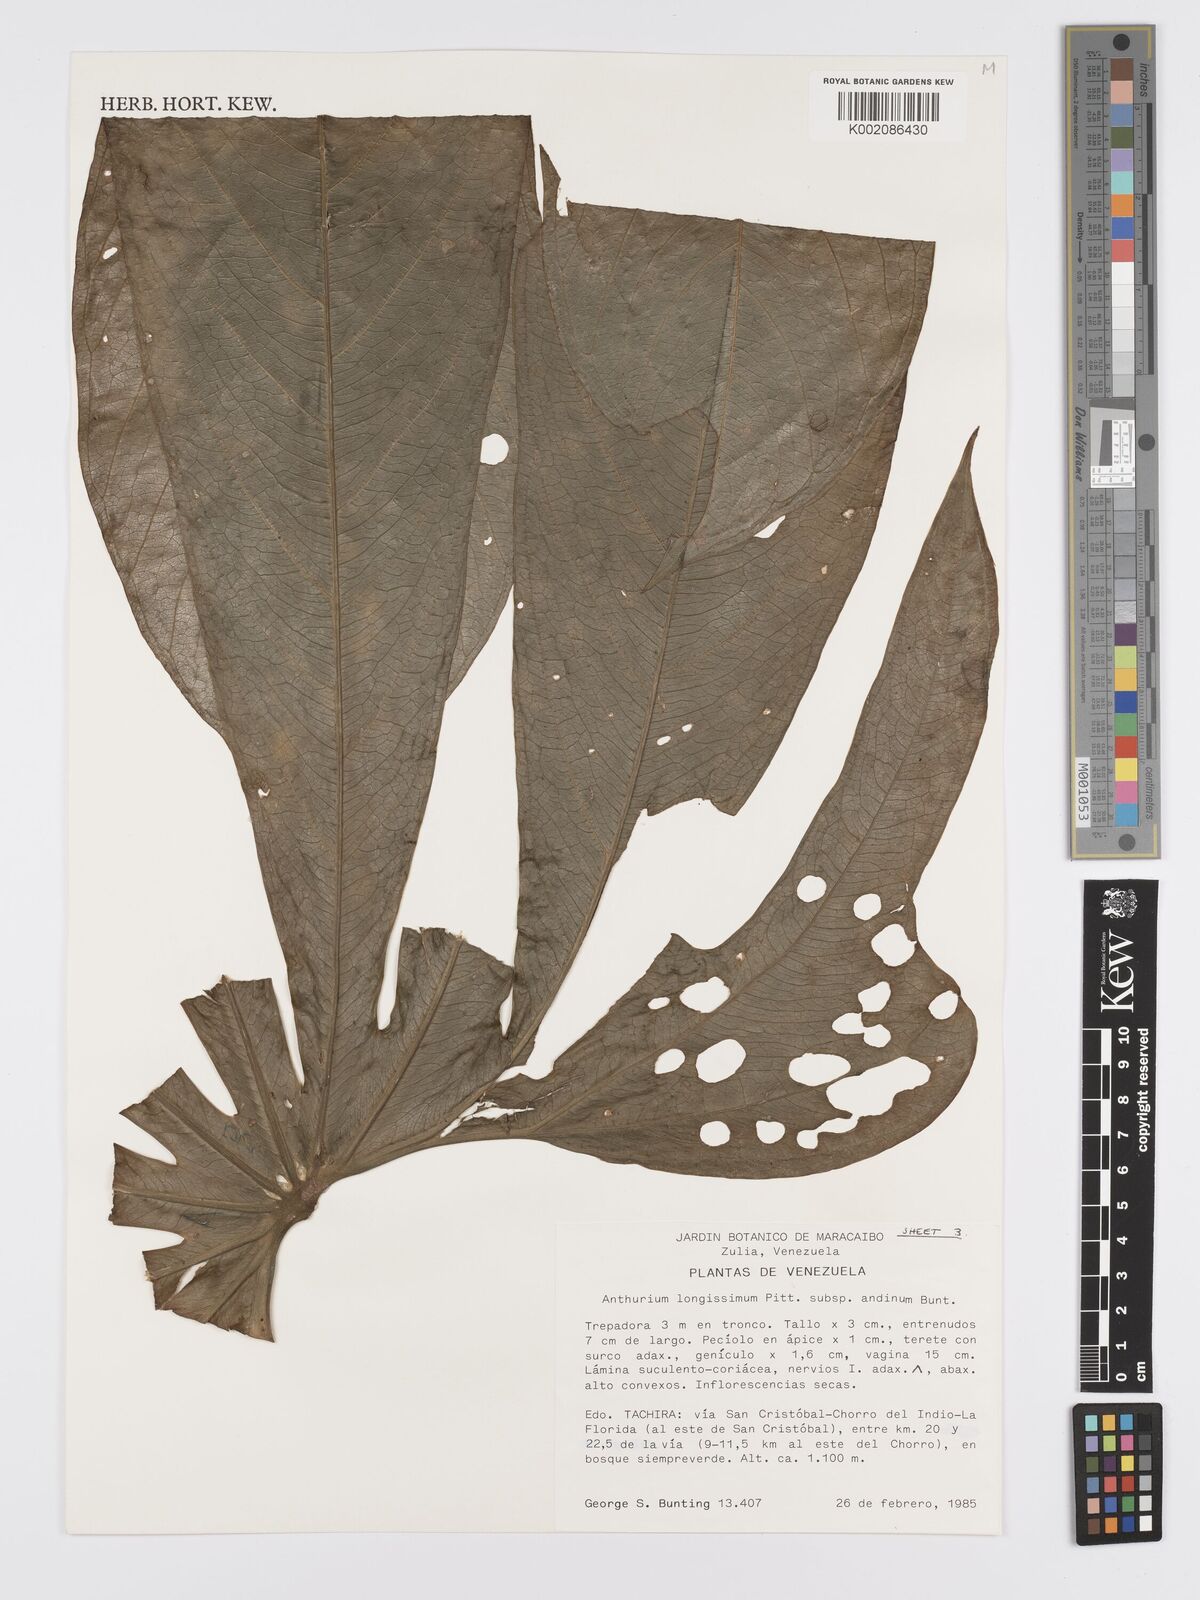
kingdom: Plantae
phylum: Tracheophyta
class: Liliopsida
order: Alismatales
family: Araceae
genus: Anthurium
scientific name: Anthurium longissimum
